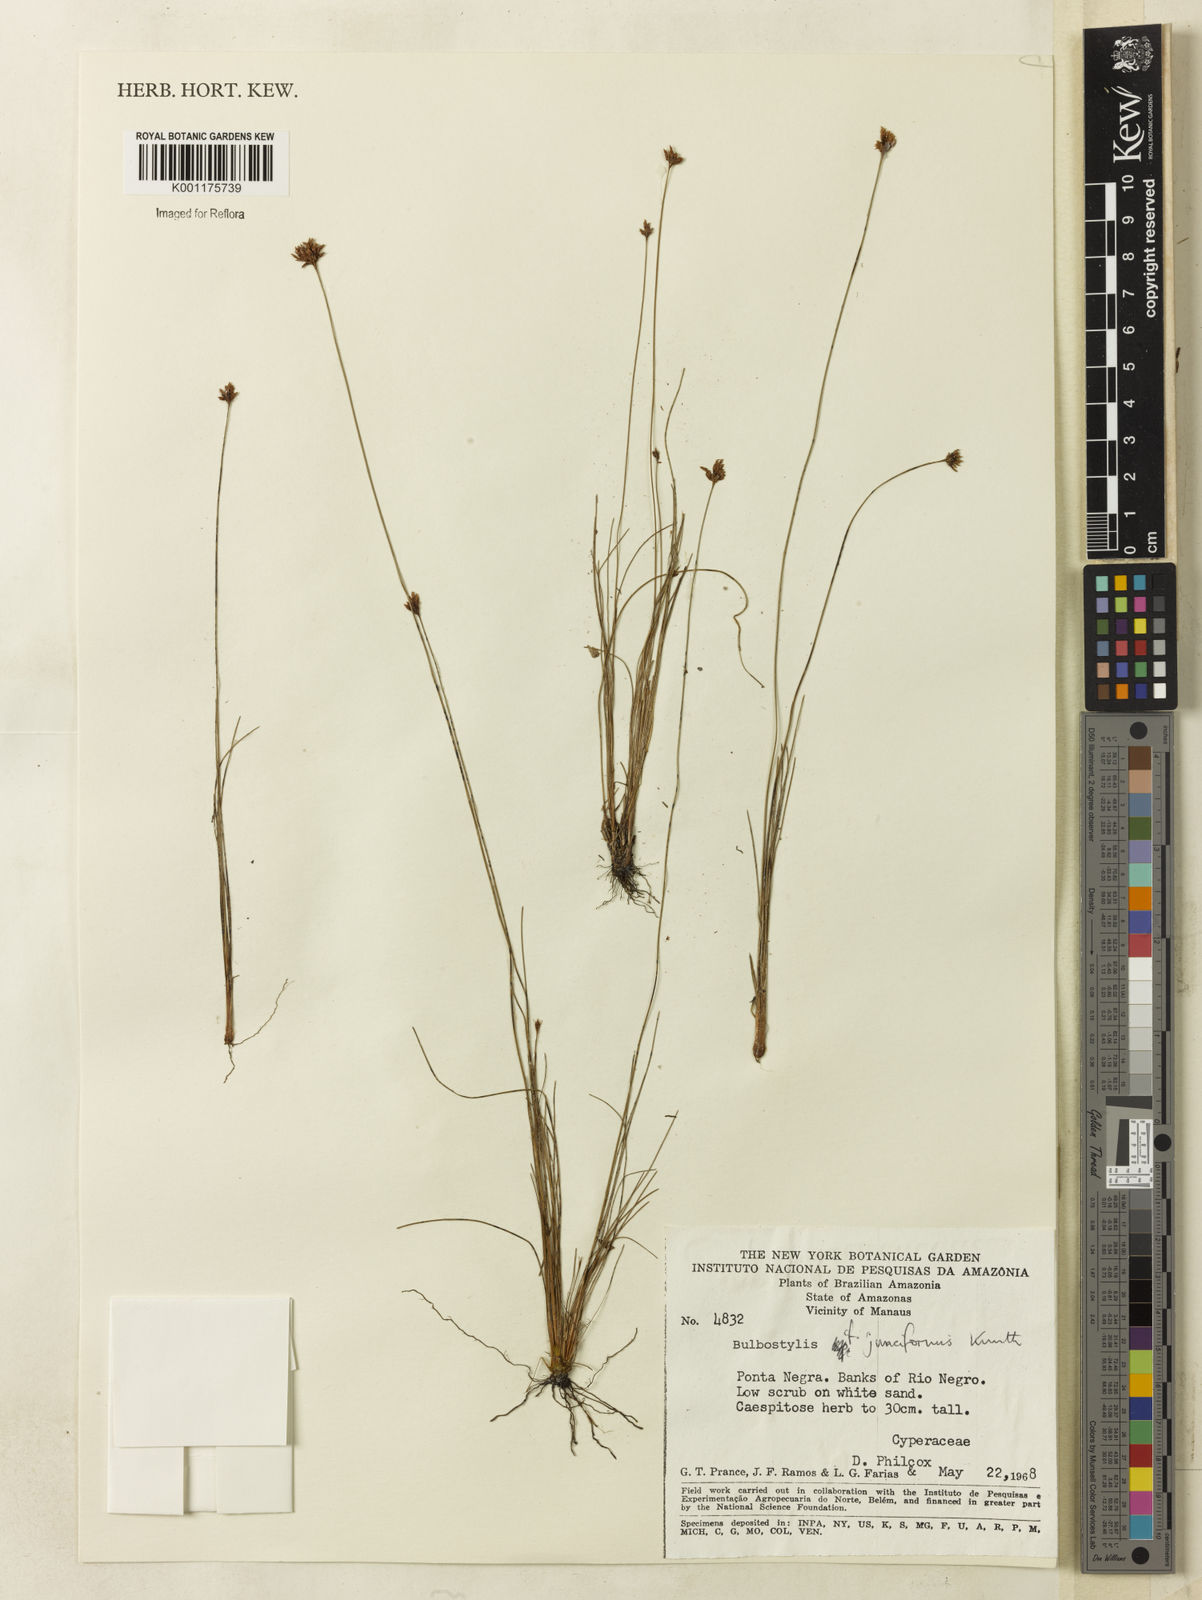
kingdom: Plantae
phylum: Tracheophyta
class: Liliopsida
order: Poales
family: Cyperaceae
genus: Bulbostylis
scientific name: Bulbostylis junciformis
